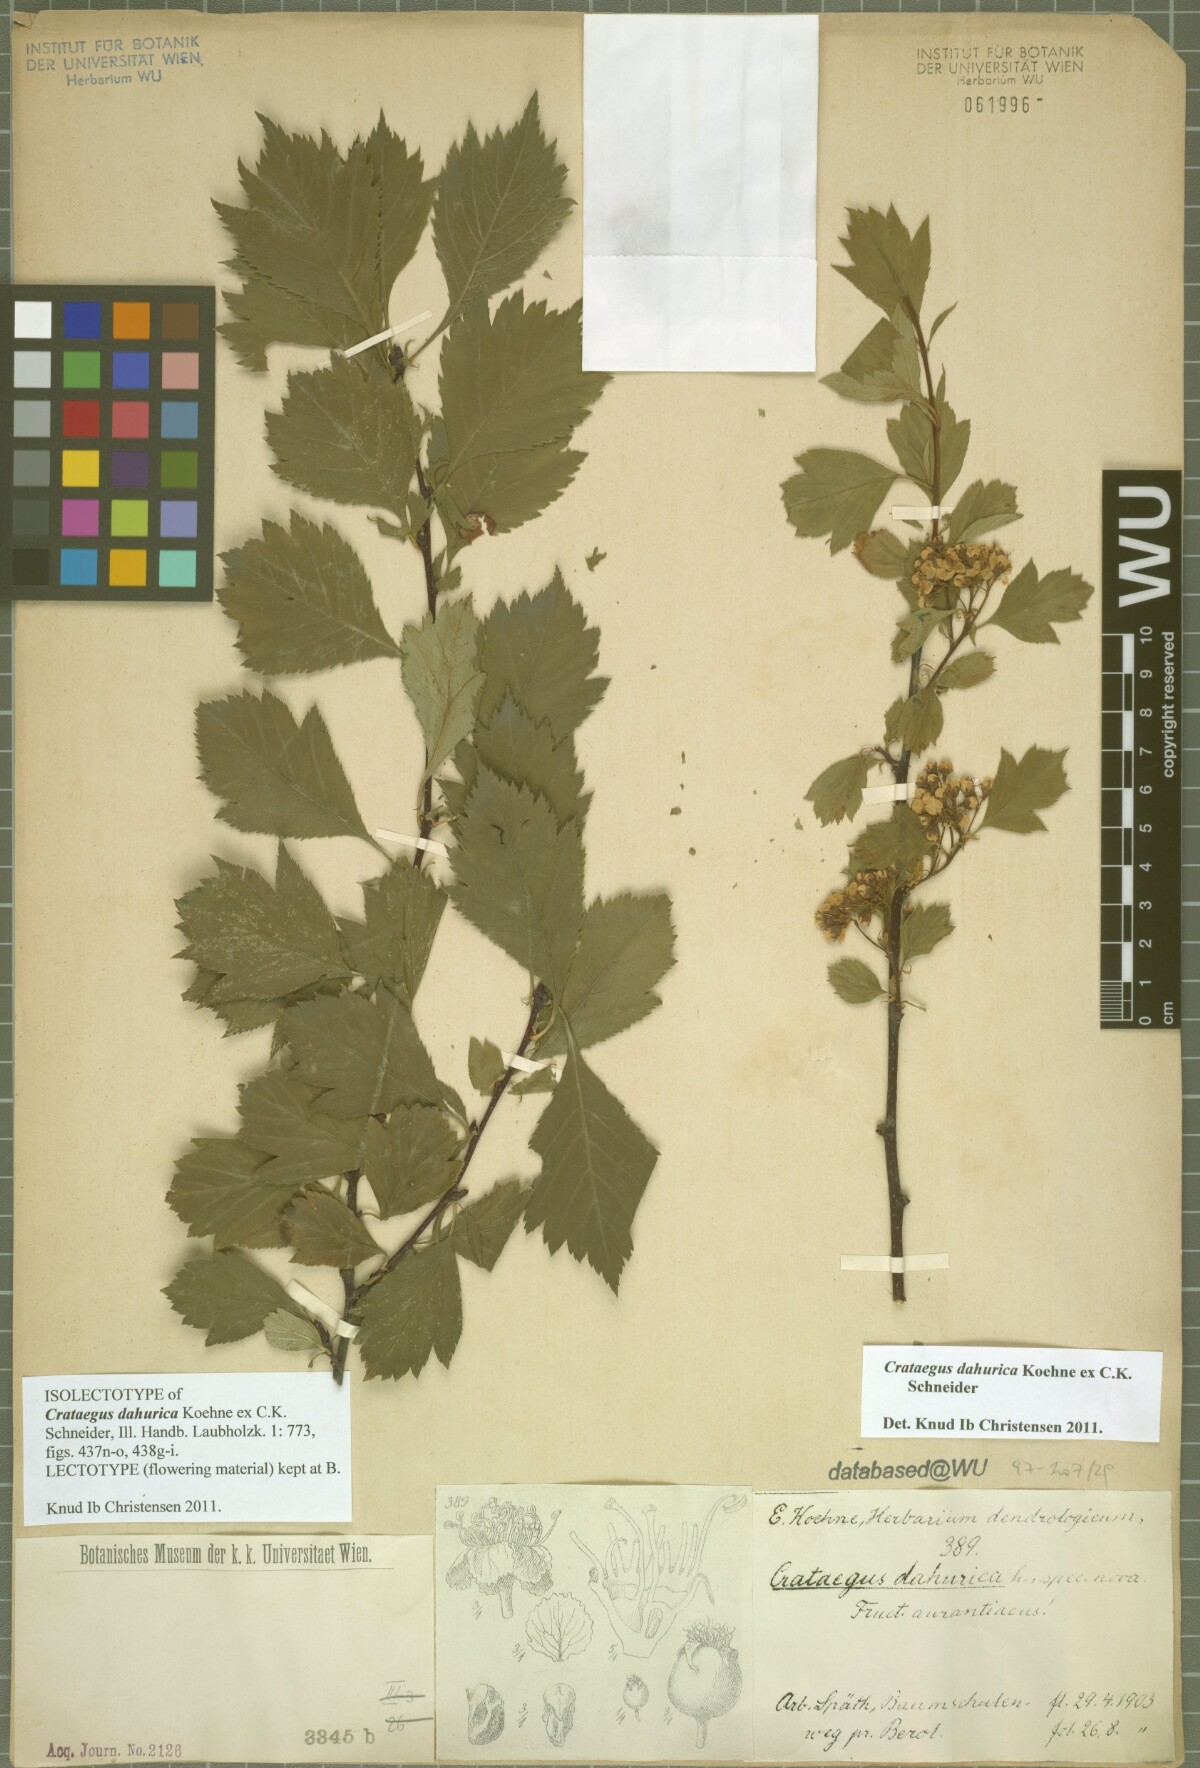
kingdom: Plantae
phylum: Tracheophyta
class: Magnoliopsida
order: Rosales
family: Rosaceae
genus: Crataegus
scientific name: Crataegus dahurica
